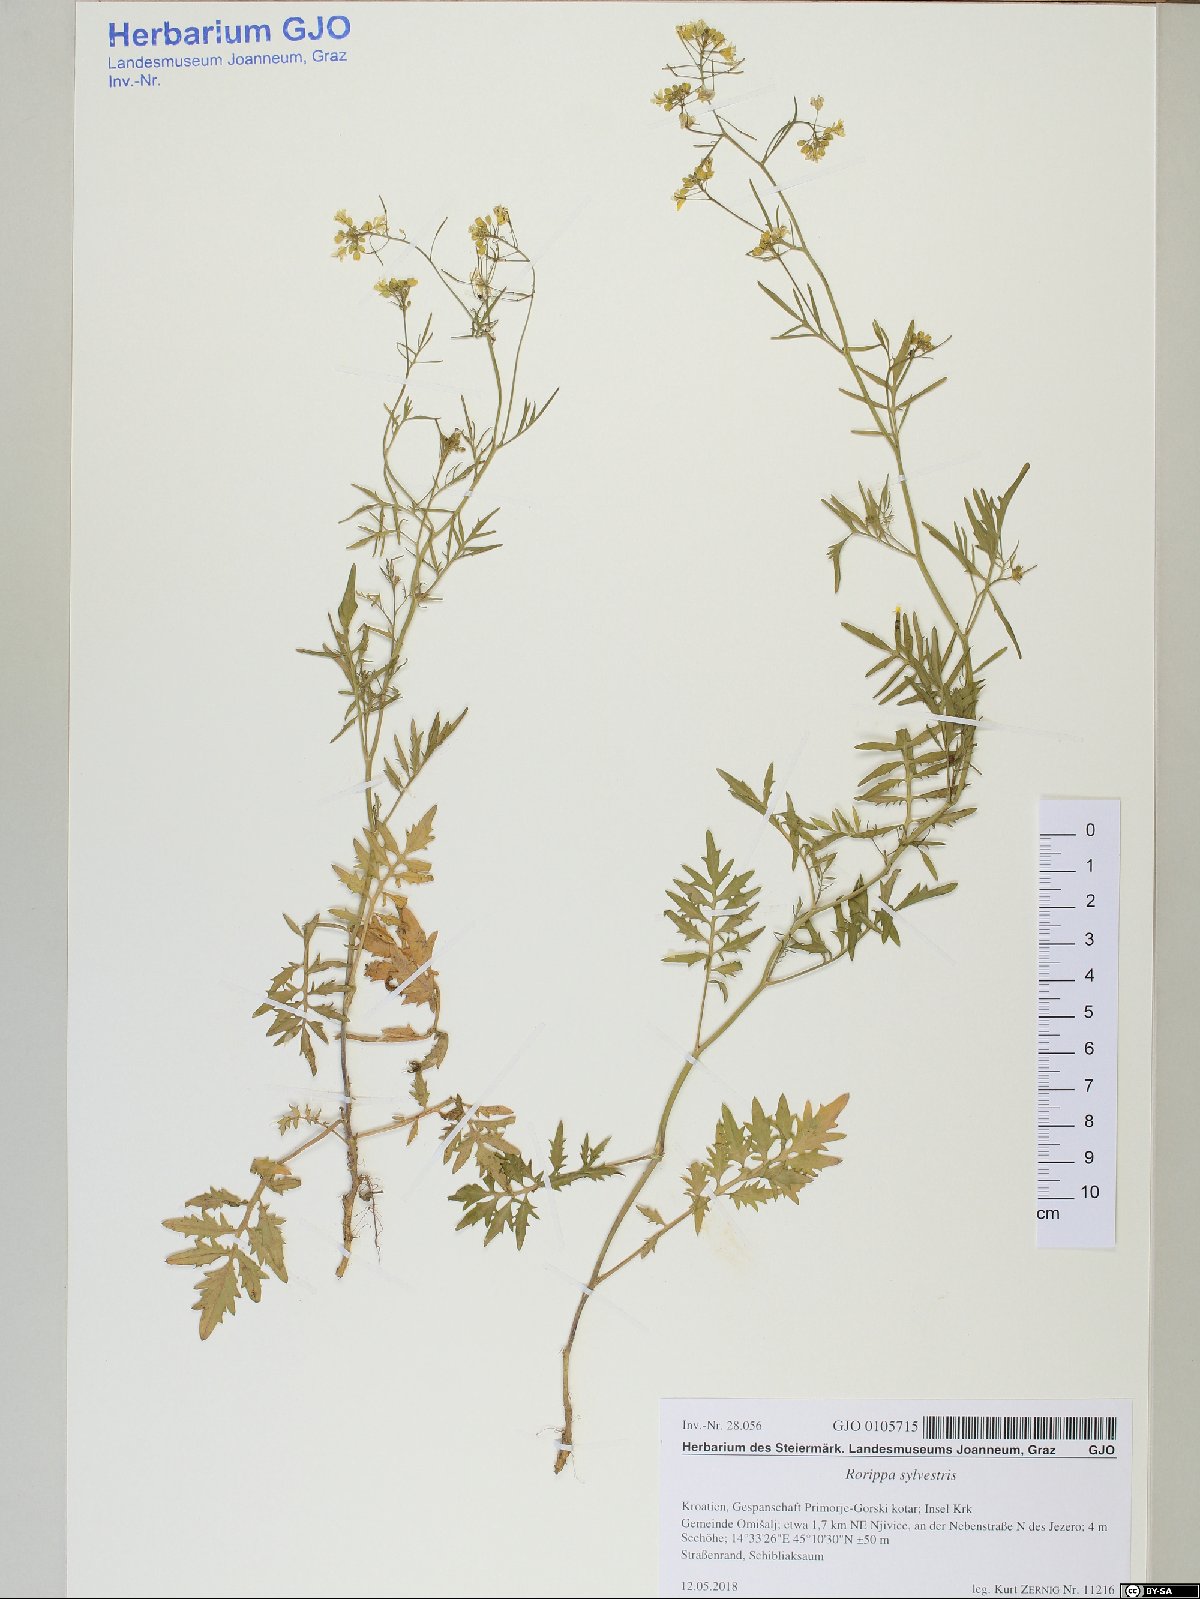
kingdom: Plantae
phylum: Tracheophyta
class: Magnoliopsida
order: Brassicales
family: Brassicaceae
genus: Rorippa
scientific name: Rorippa sylvestris
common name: Creeping yellowcress
